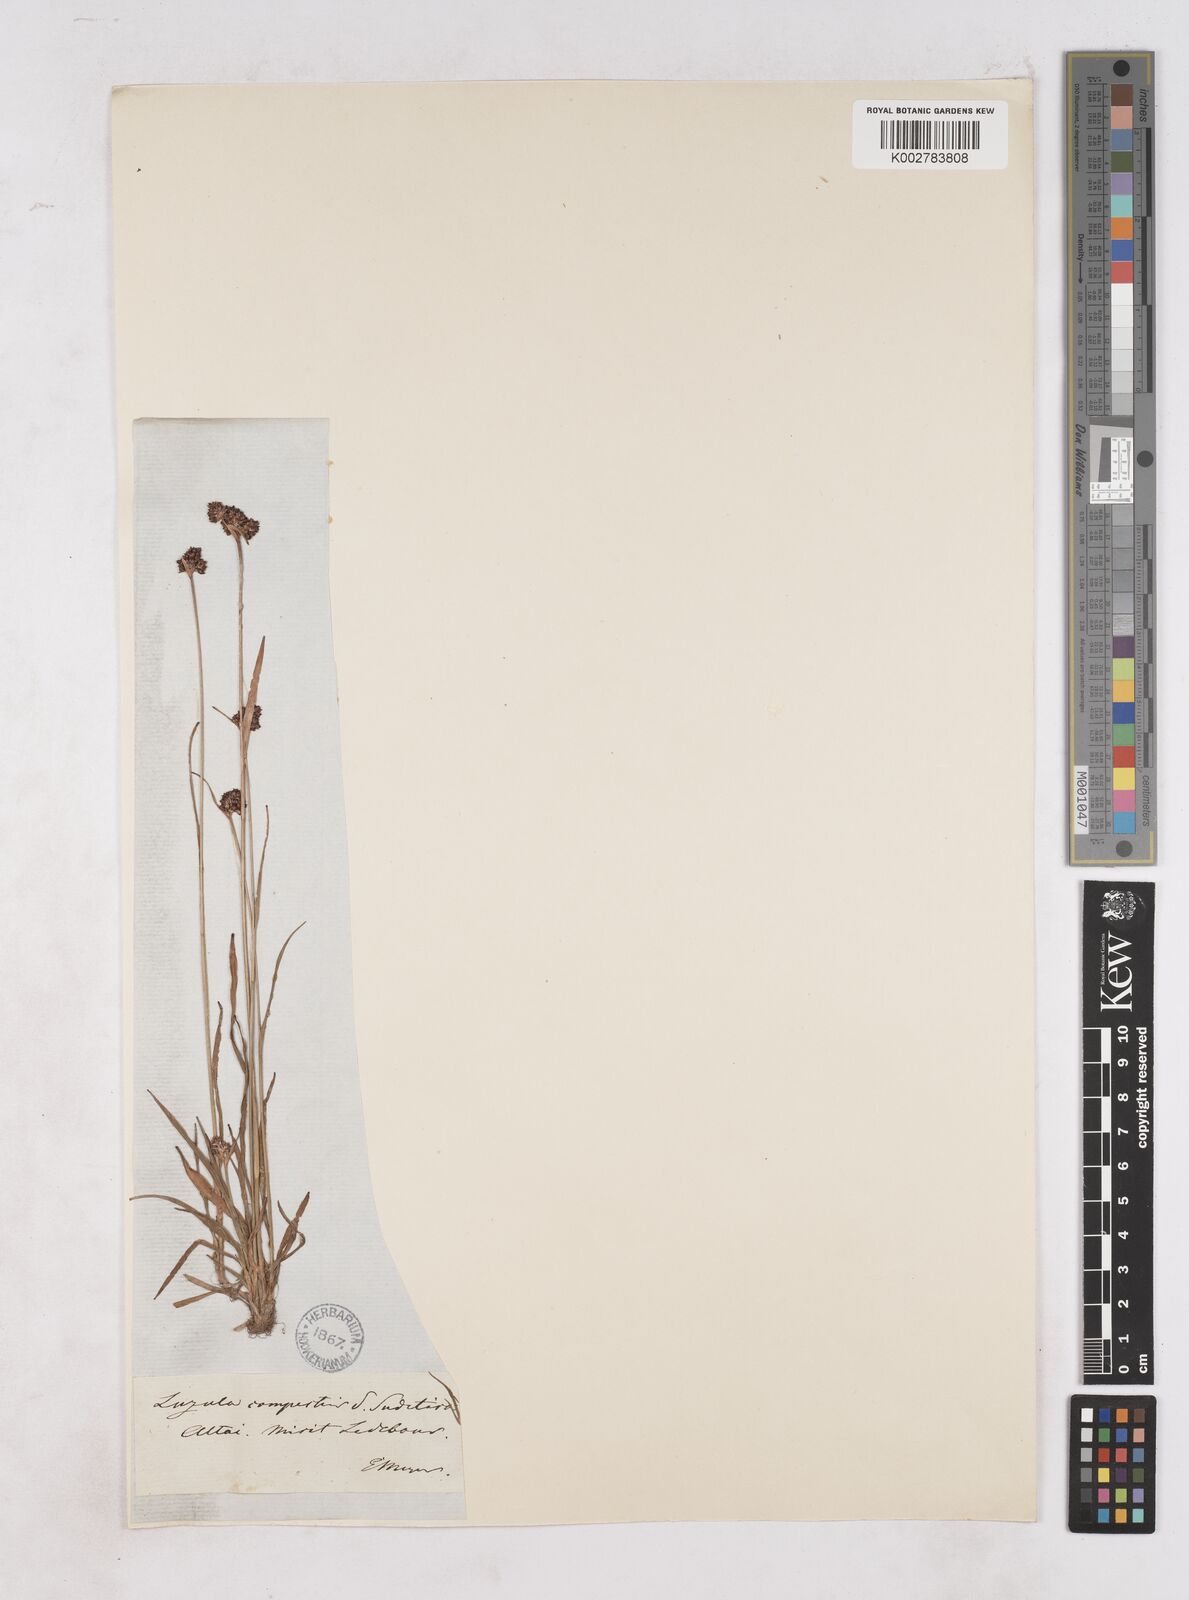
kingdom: Plantae
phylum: Tracheophyta
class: Liliopsida
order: Poales
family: Juncaceae
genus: Luzula
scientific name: Luzula campestris
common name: Field wood-rush
